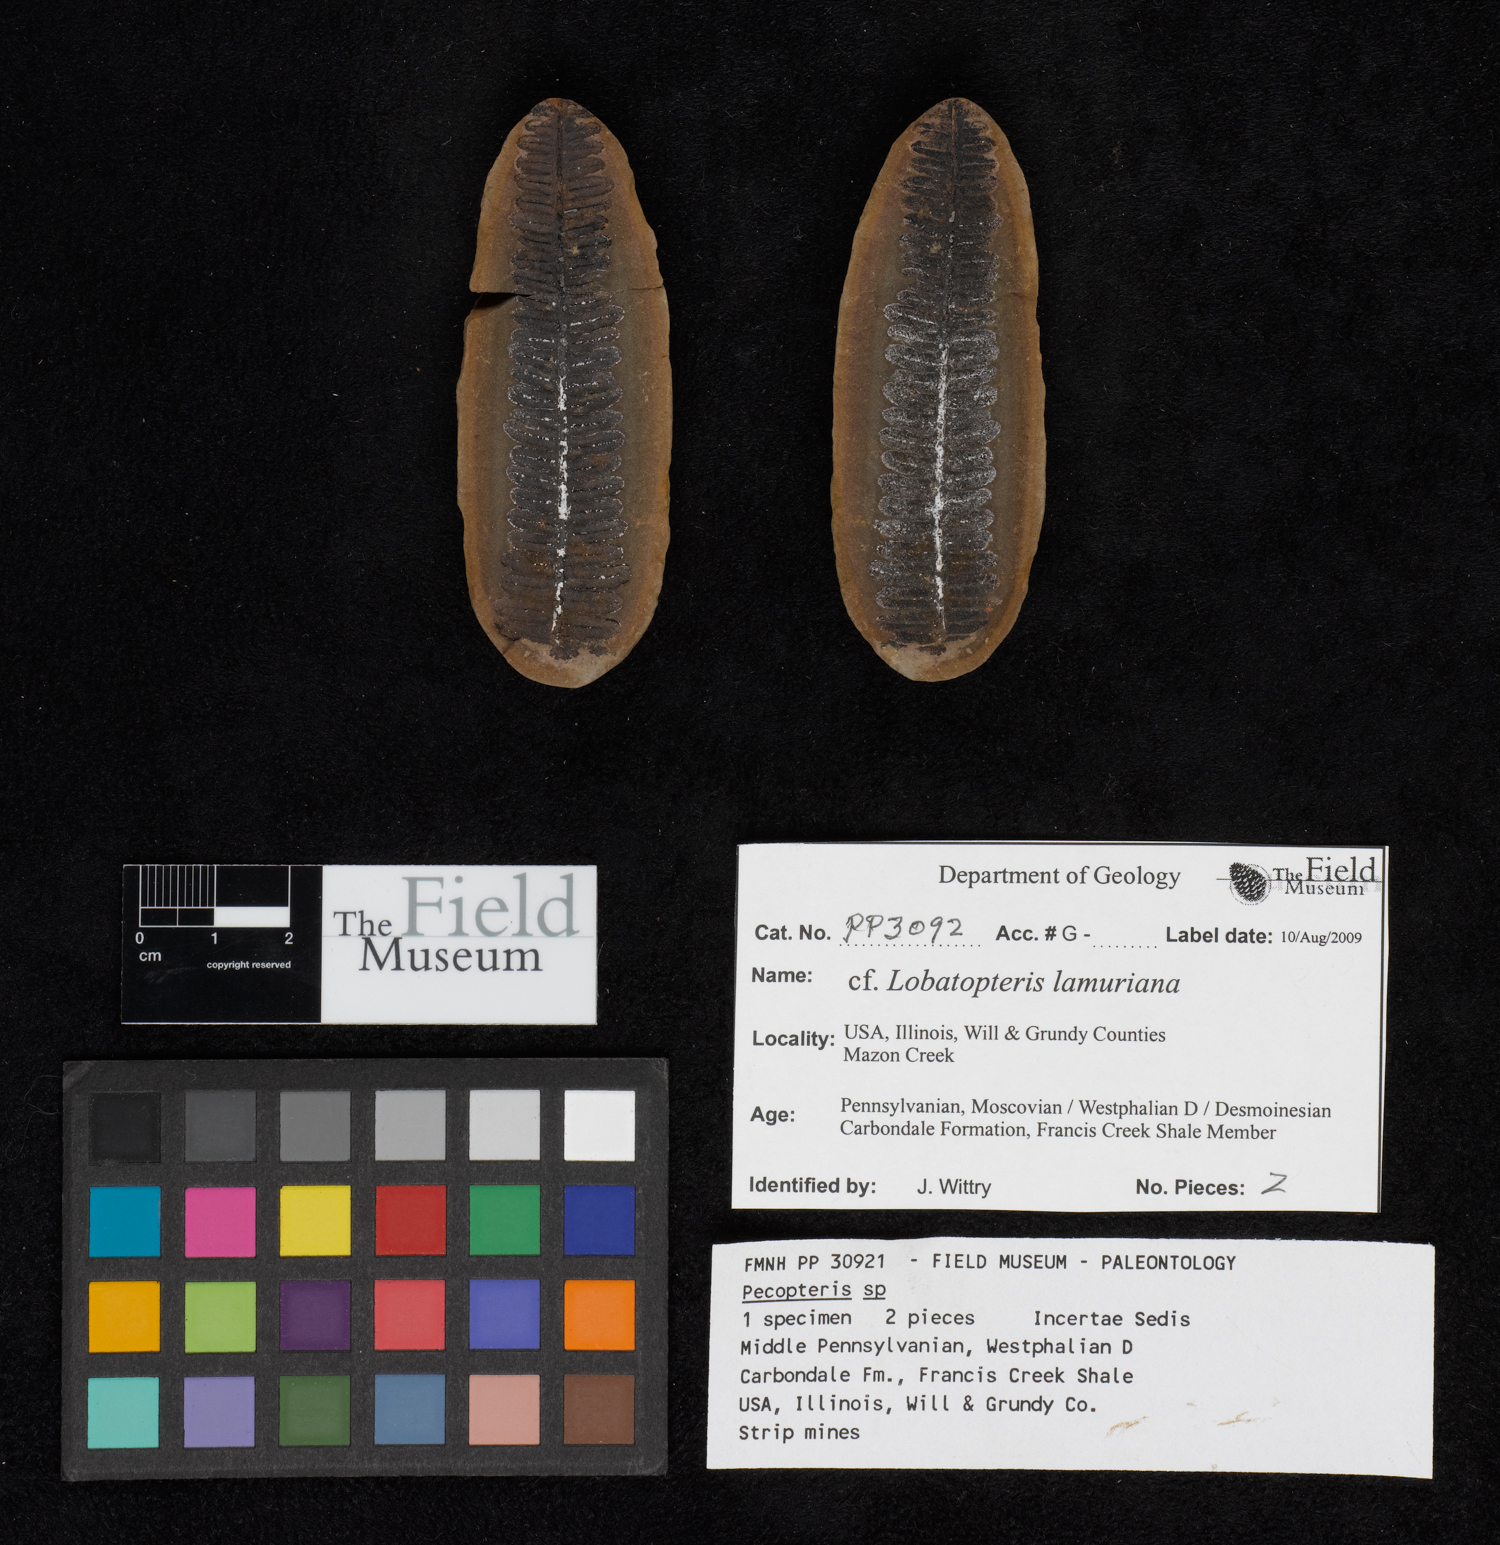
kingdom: Plantae
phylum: Tracheophyta
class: Polypodiopsida
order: Marattiales
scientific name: Marattiales
